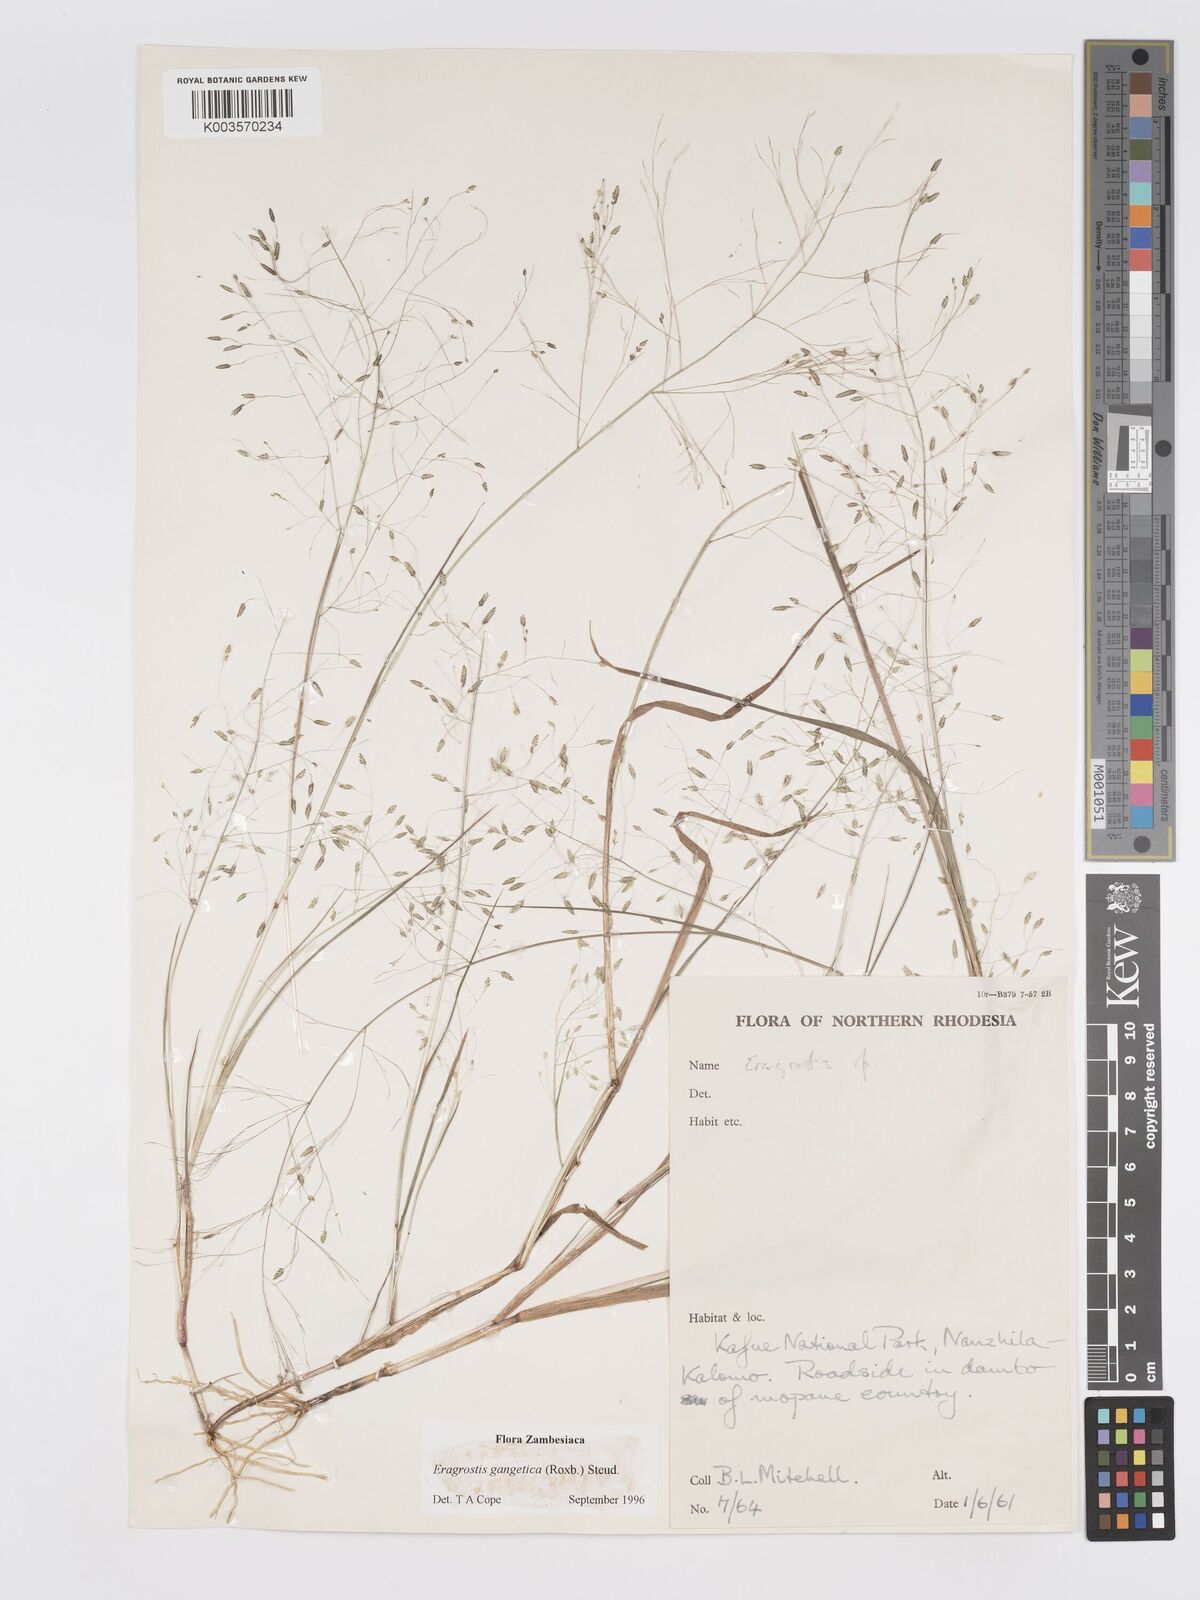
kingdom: Plantae
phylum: Tracheophyta
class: Liliopsida
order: Poales
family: Poaceae
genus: Eragrostis
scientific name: Eragrostis gangetica
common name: Slimflower lovegrass
